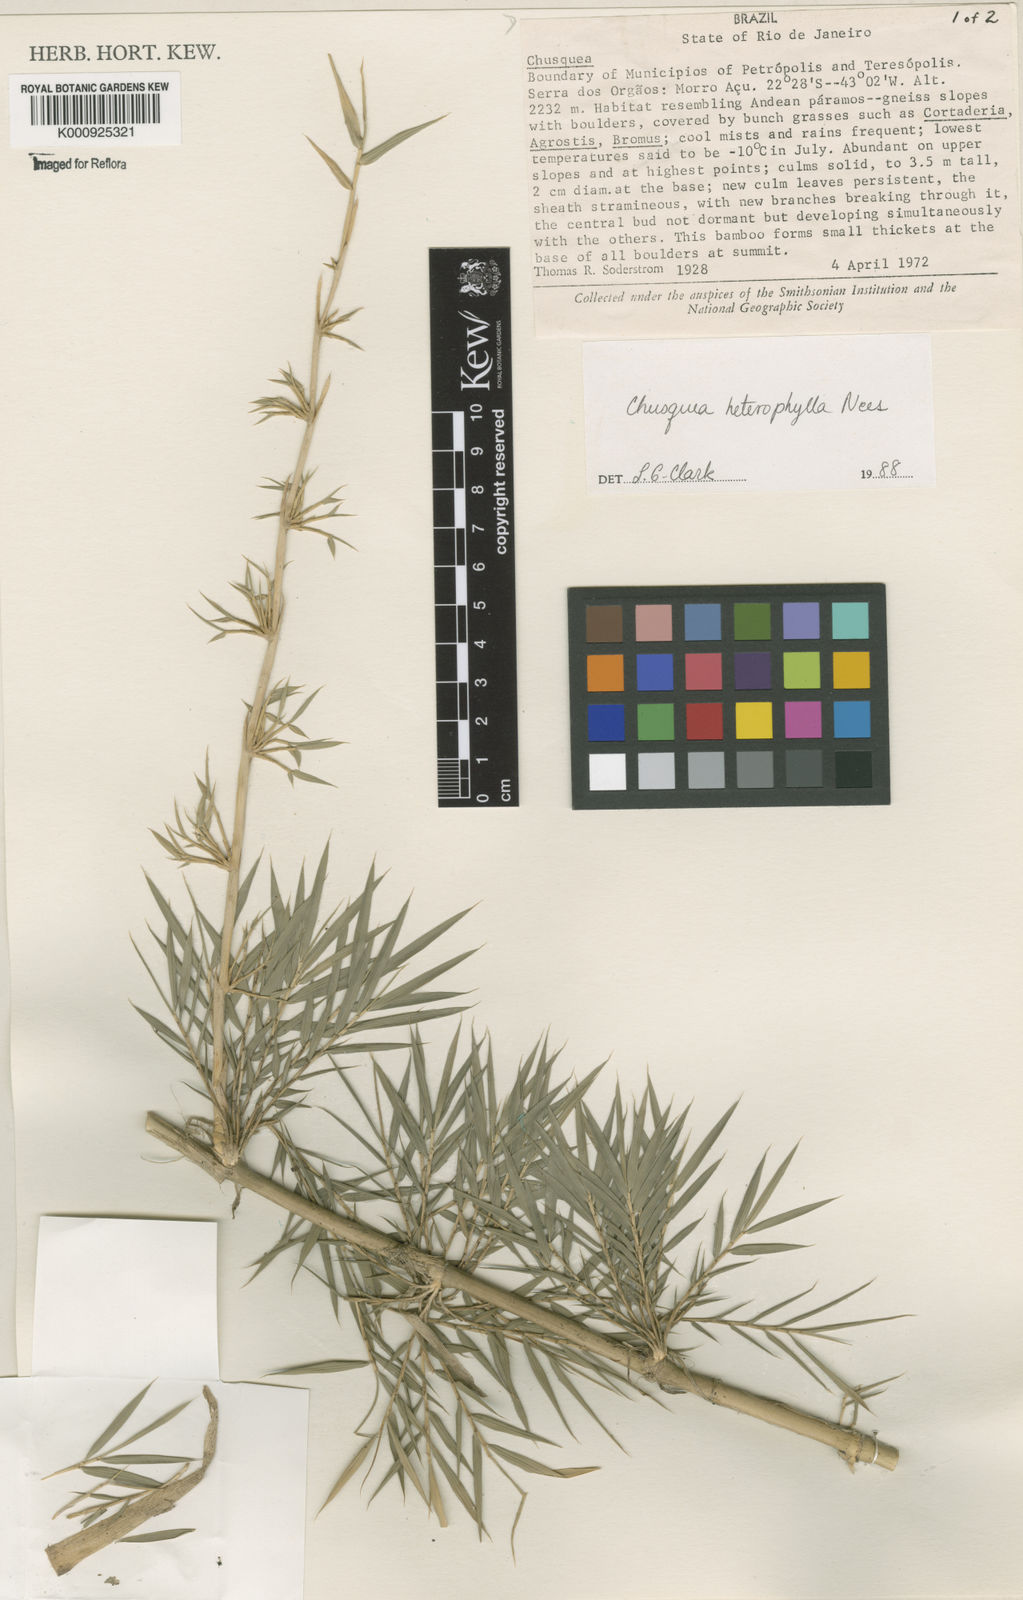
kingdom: Plantae
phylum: Tracheophyta
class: Liliopsida
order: Poales
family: Poaceae
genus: Chusquea
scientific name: Chusquea heterophylla
